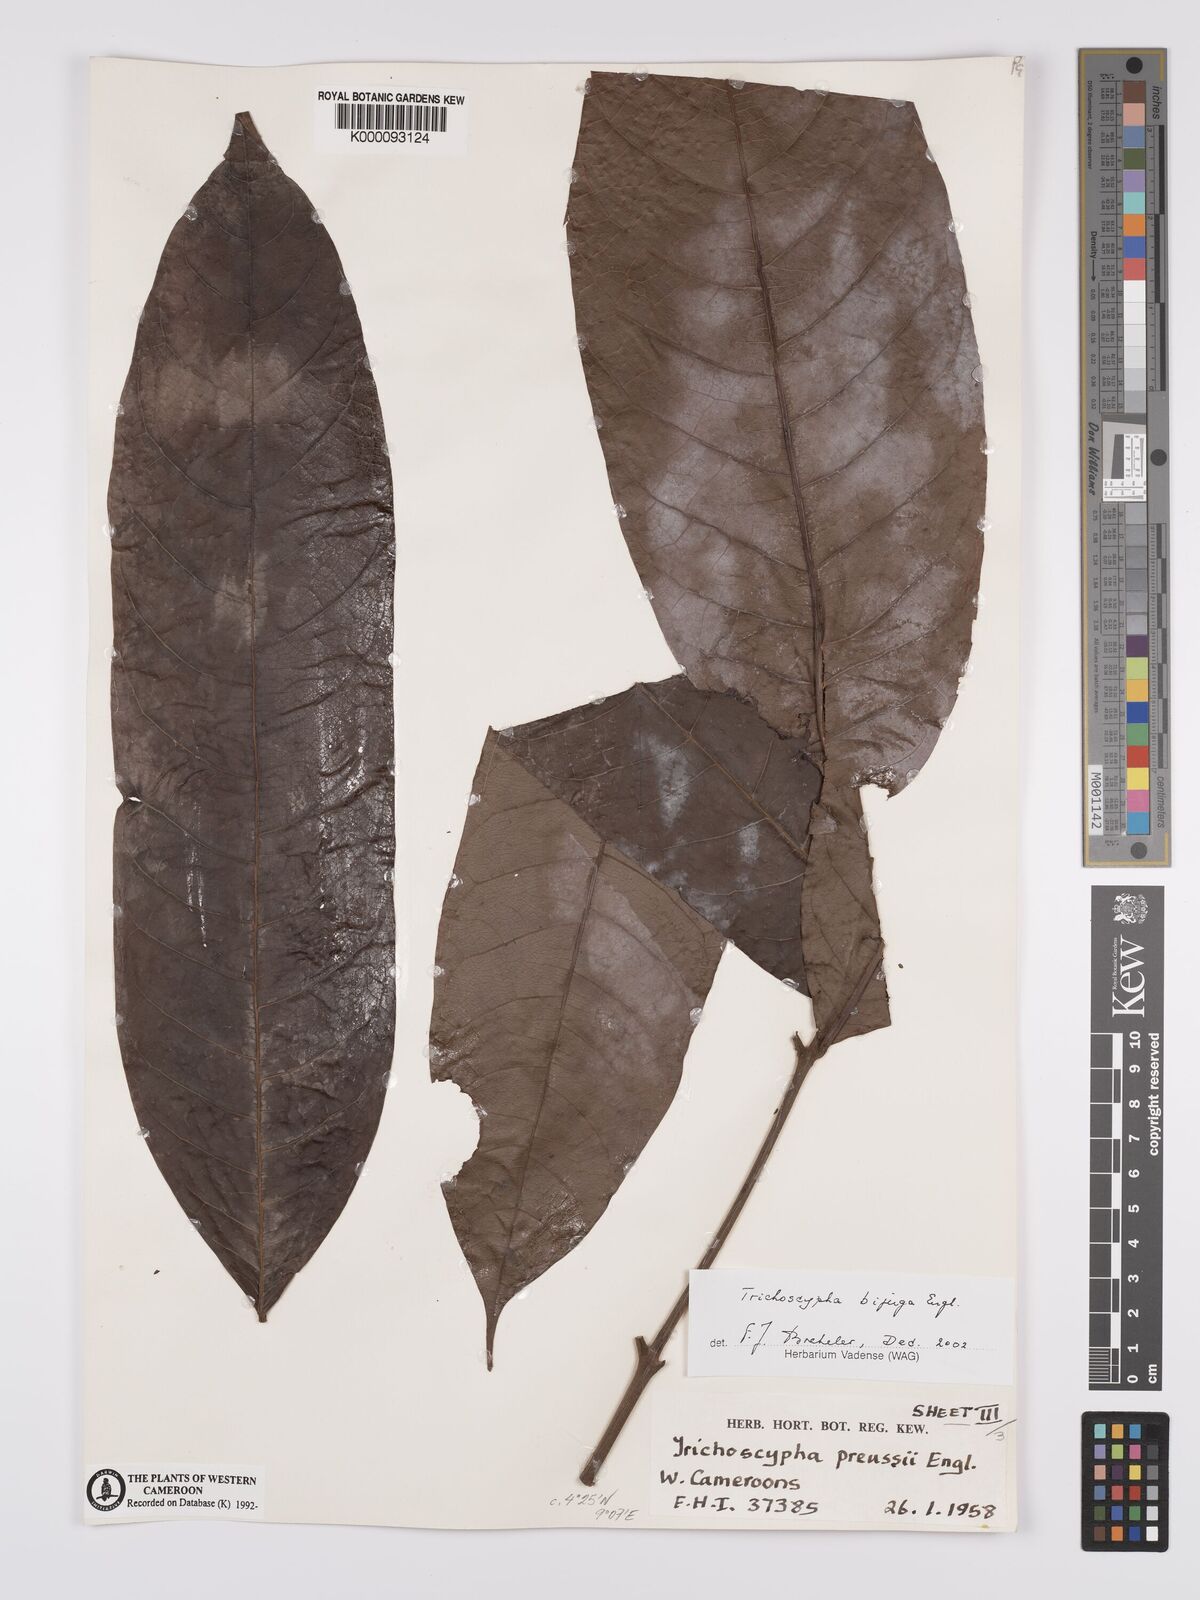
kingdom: Plantae
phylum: Tracheophyta
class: Magnoliopsida
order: Sapindales
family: Anacardiaceae
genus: Trichoscypha
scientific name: Trichoscypha bijuga
